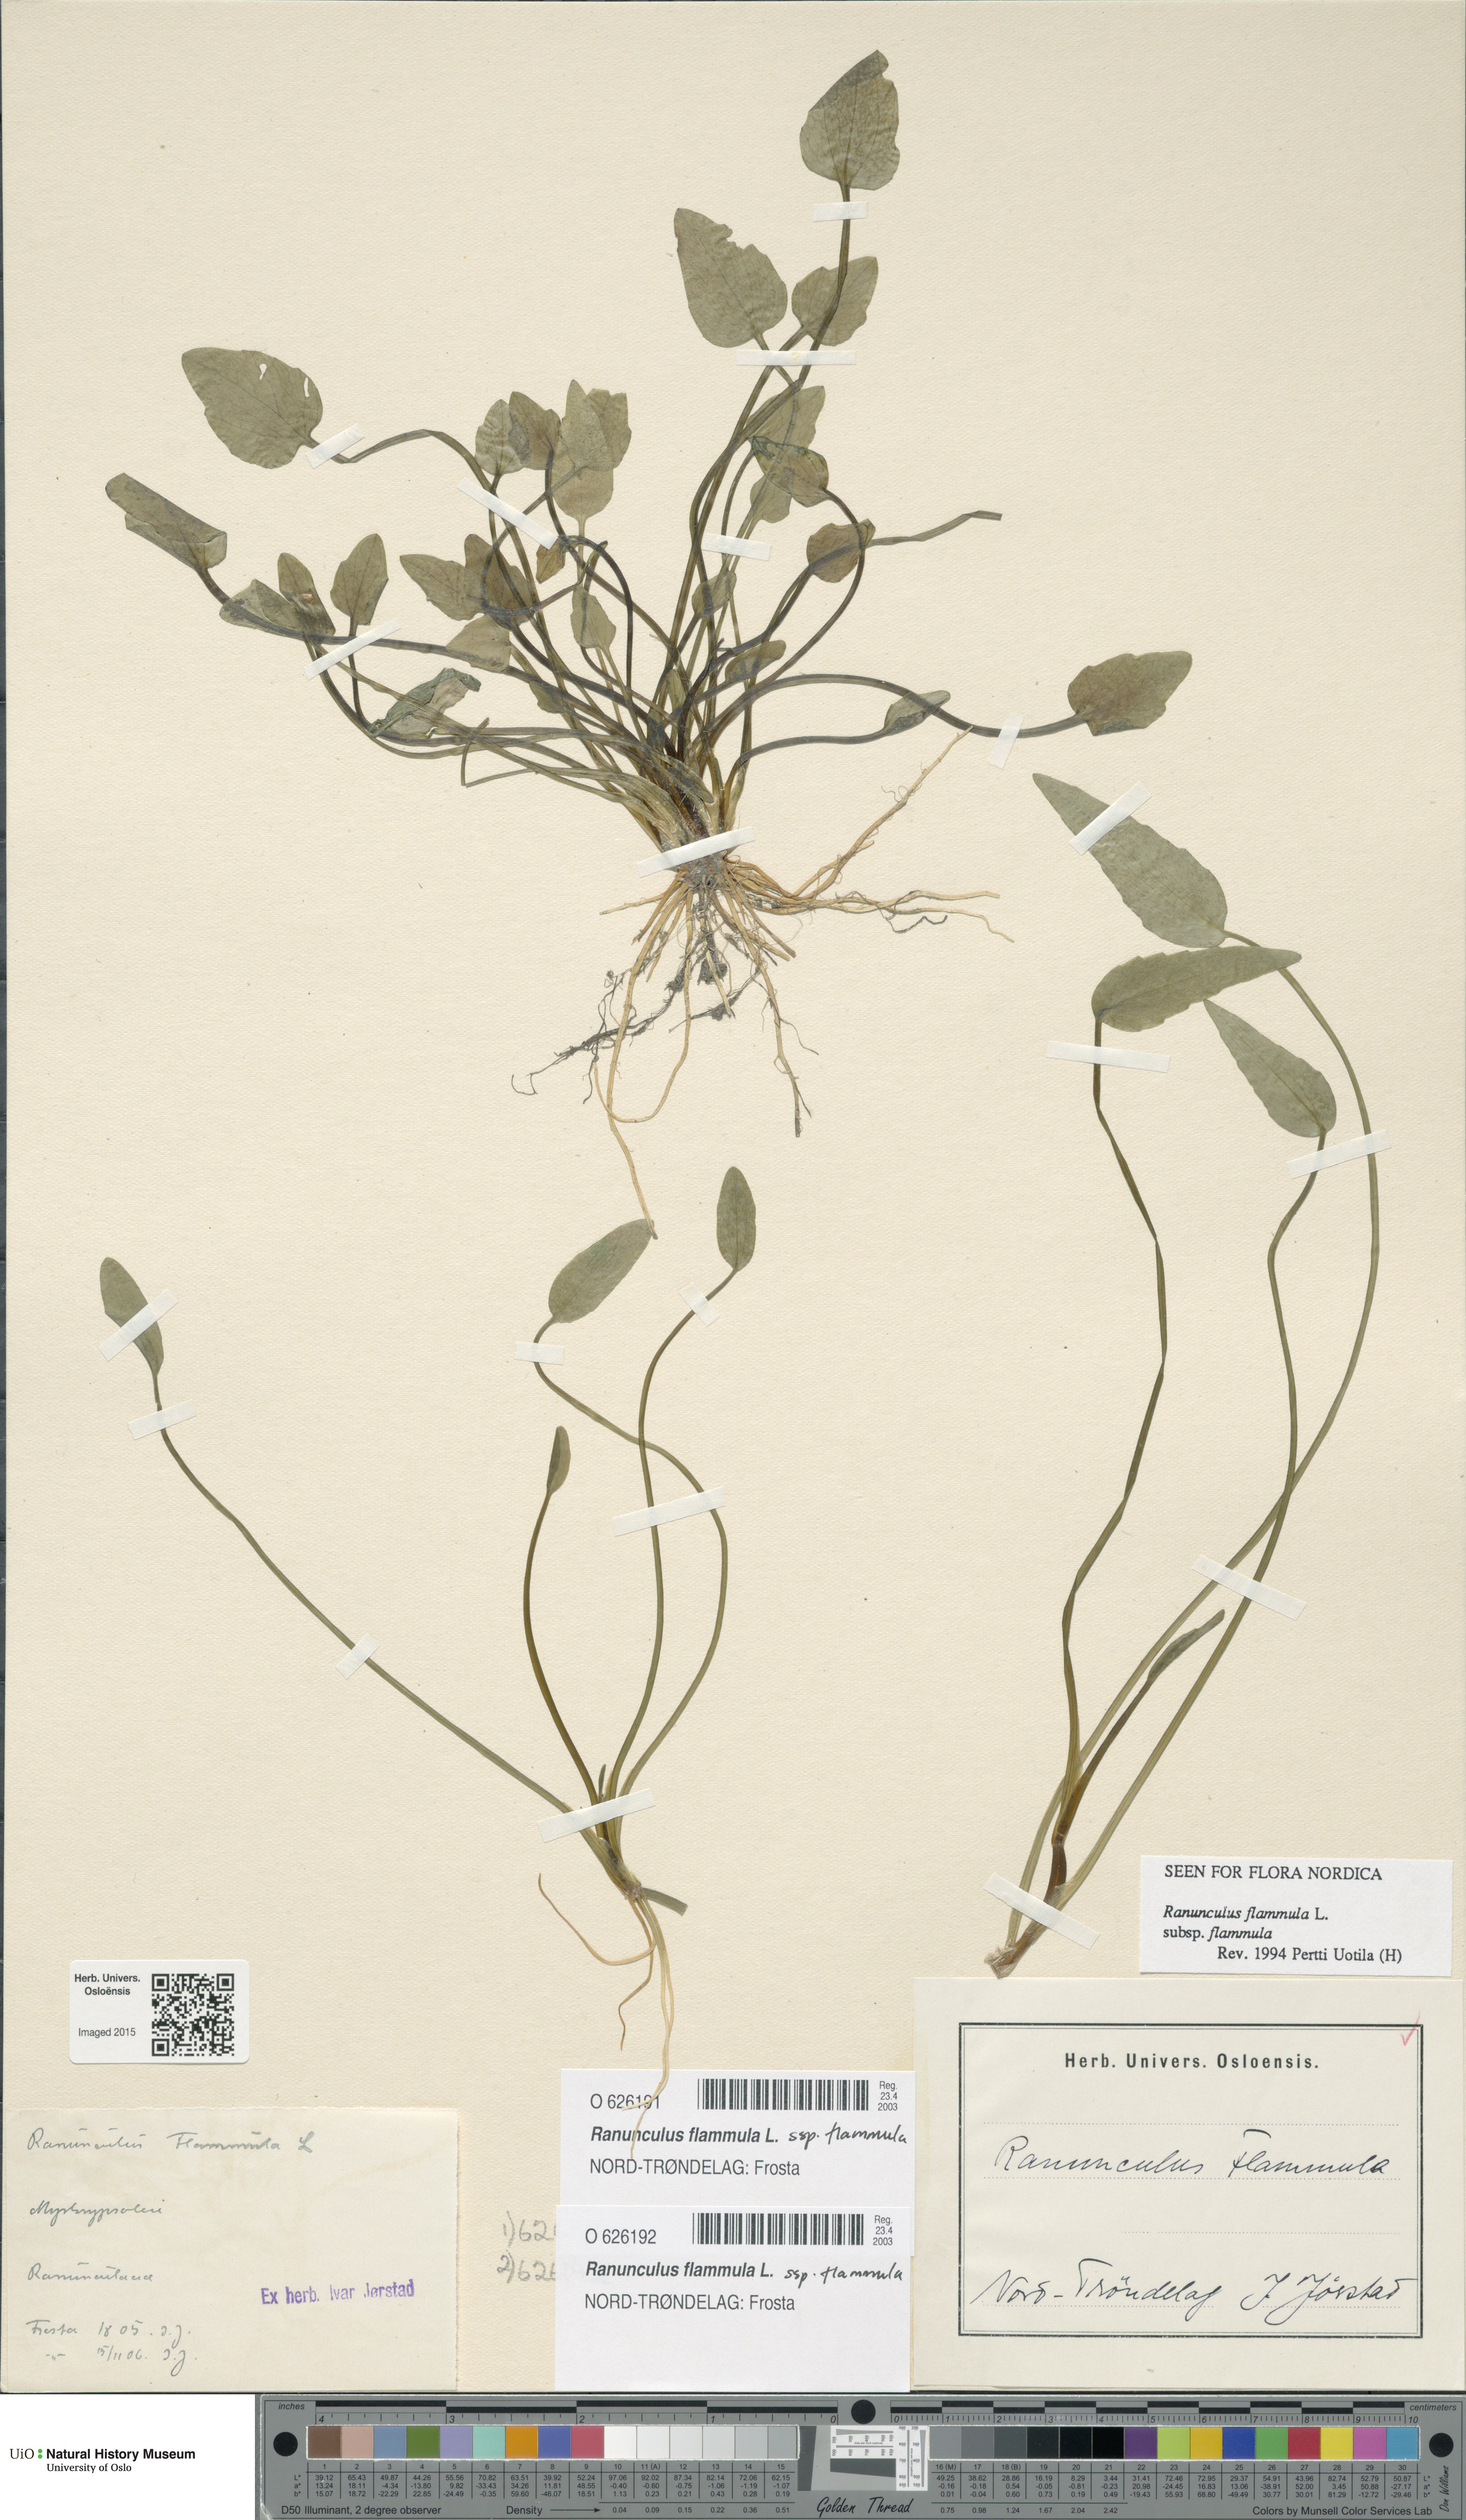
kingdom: Plantae
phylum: Tracheophyta
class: Magnoliopsida
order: Ranunculales
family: Ranunculaceae
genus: Ranunculus
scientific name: Ranunculus flammula
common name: Lesser spearwort
